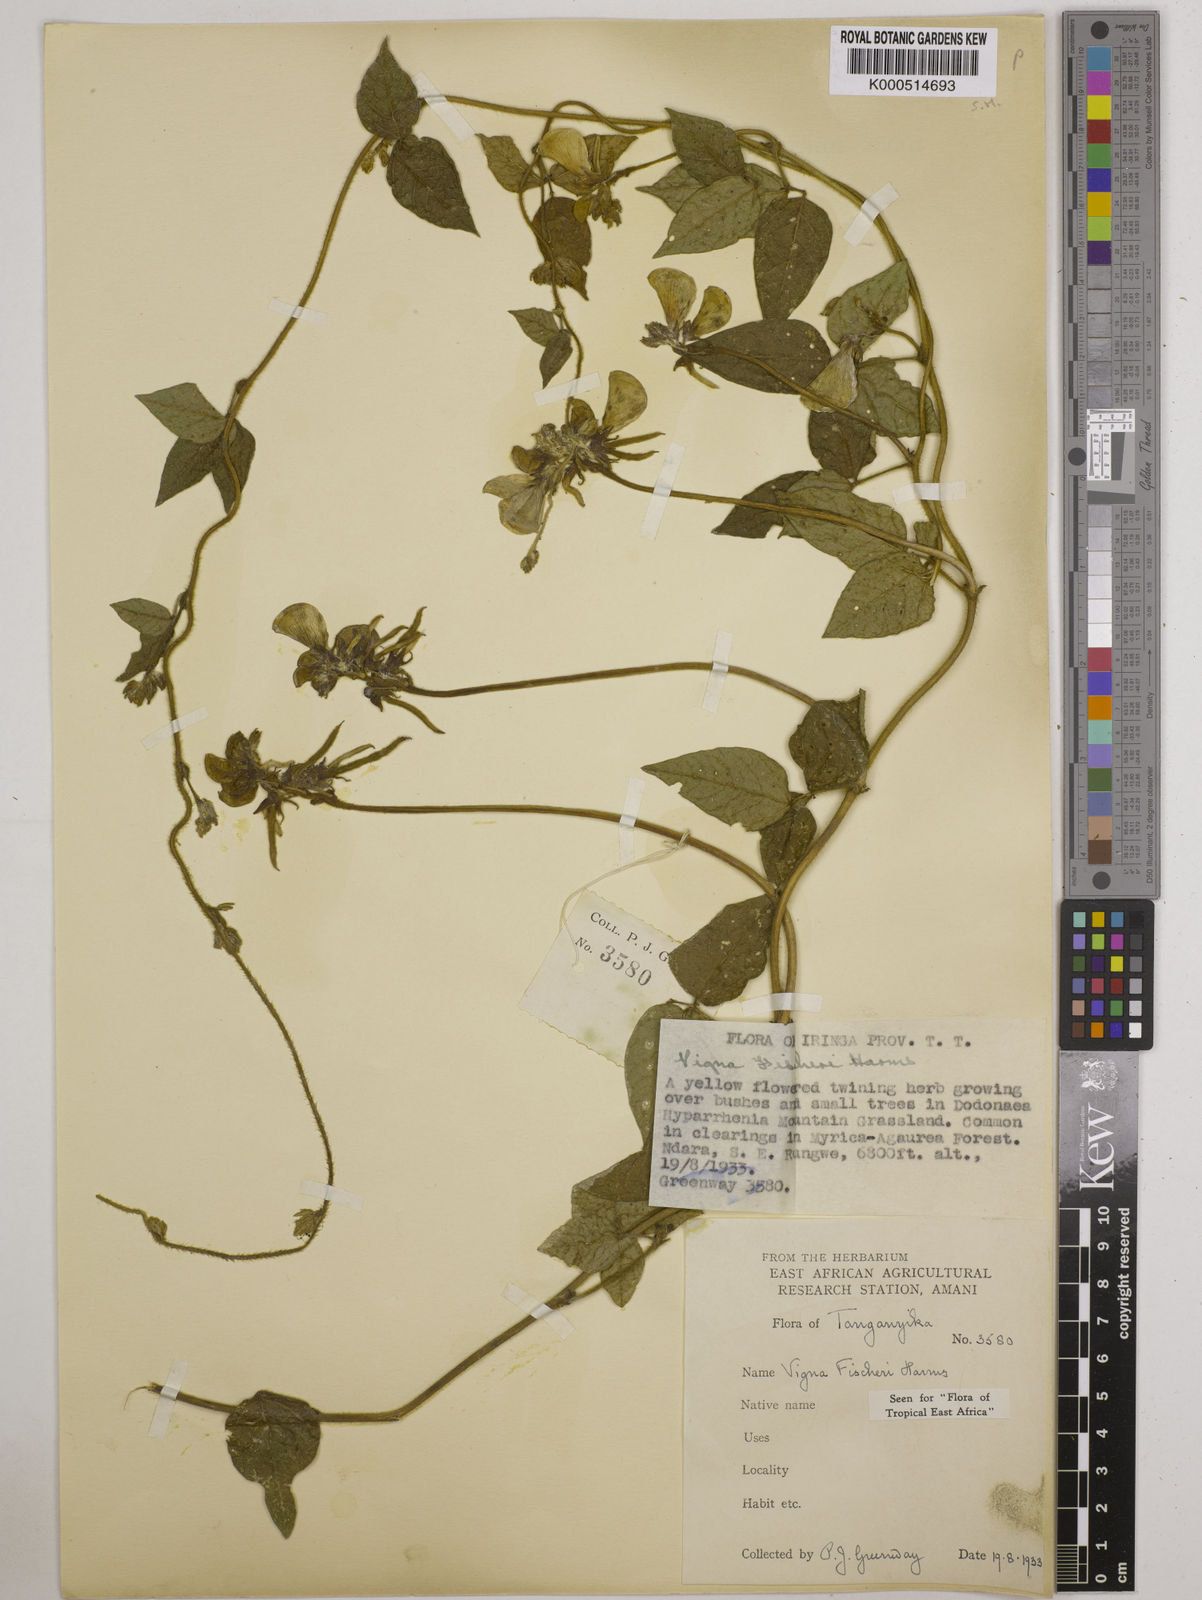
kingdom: Plantae
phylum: Tracheophyta
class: Magnoliopsida
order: Fabales
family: Fabaceae
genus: Vigna
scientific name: Vigna fischeri
